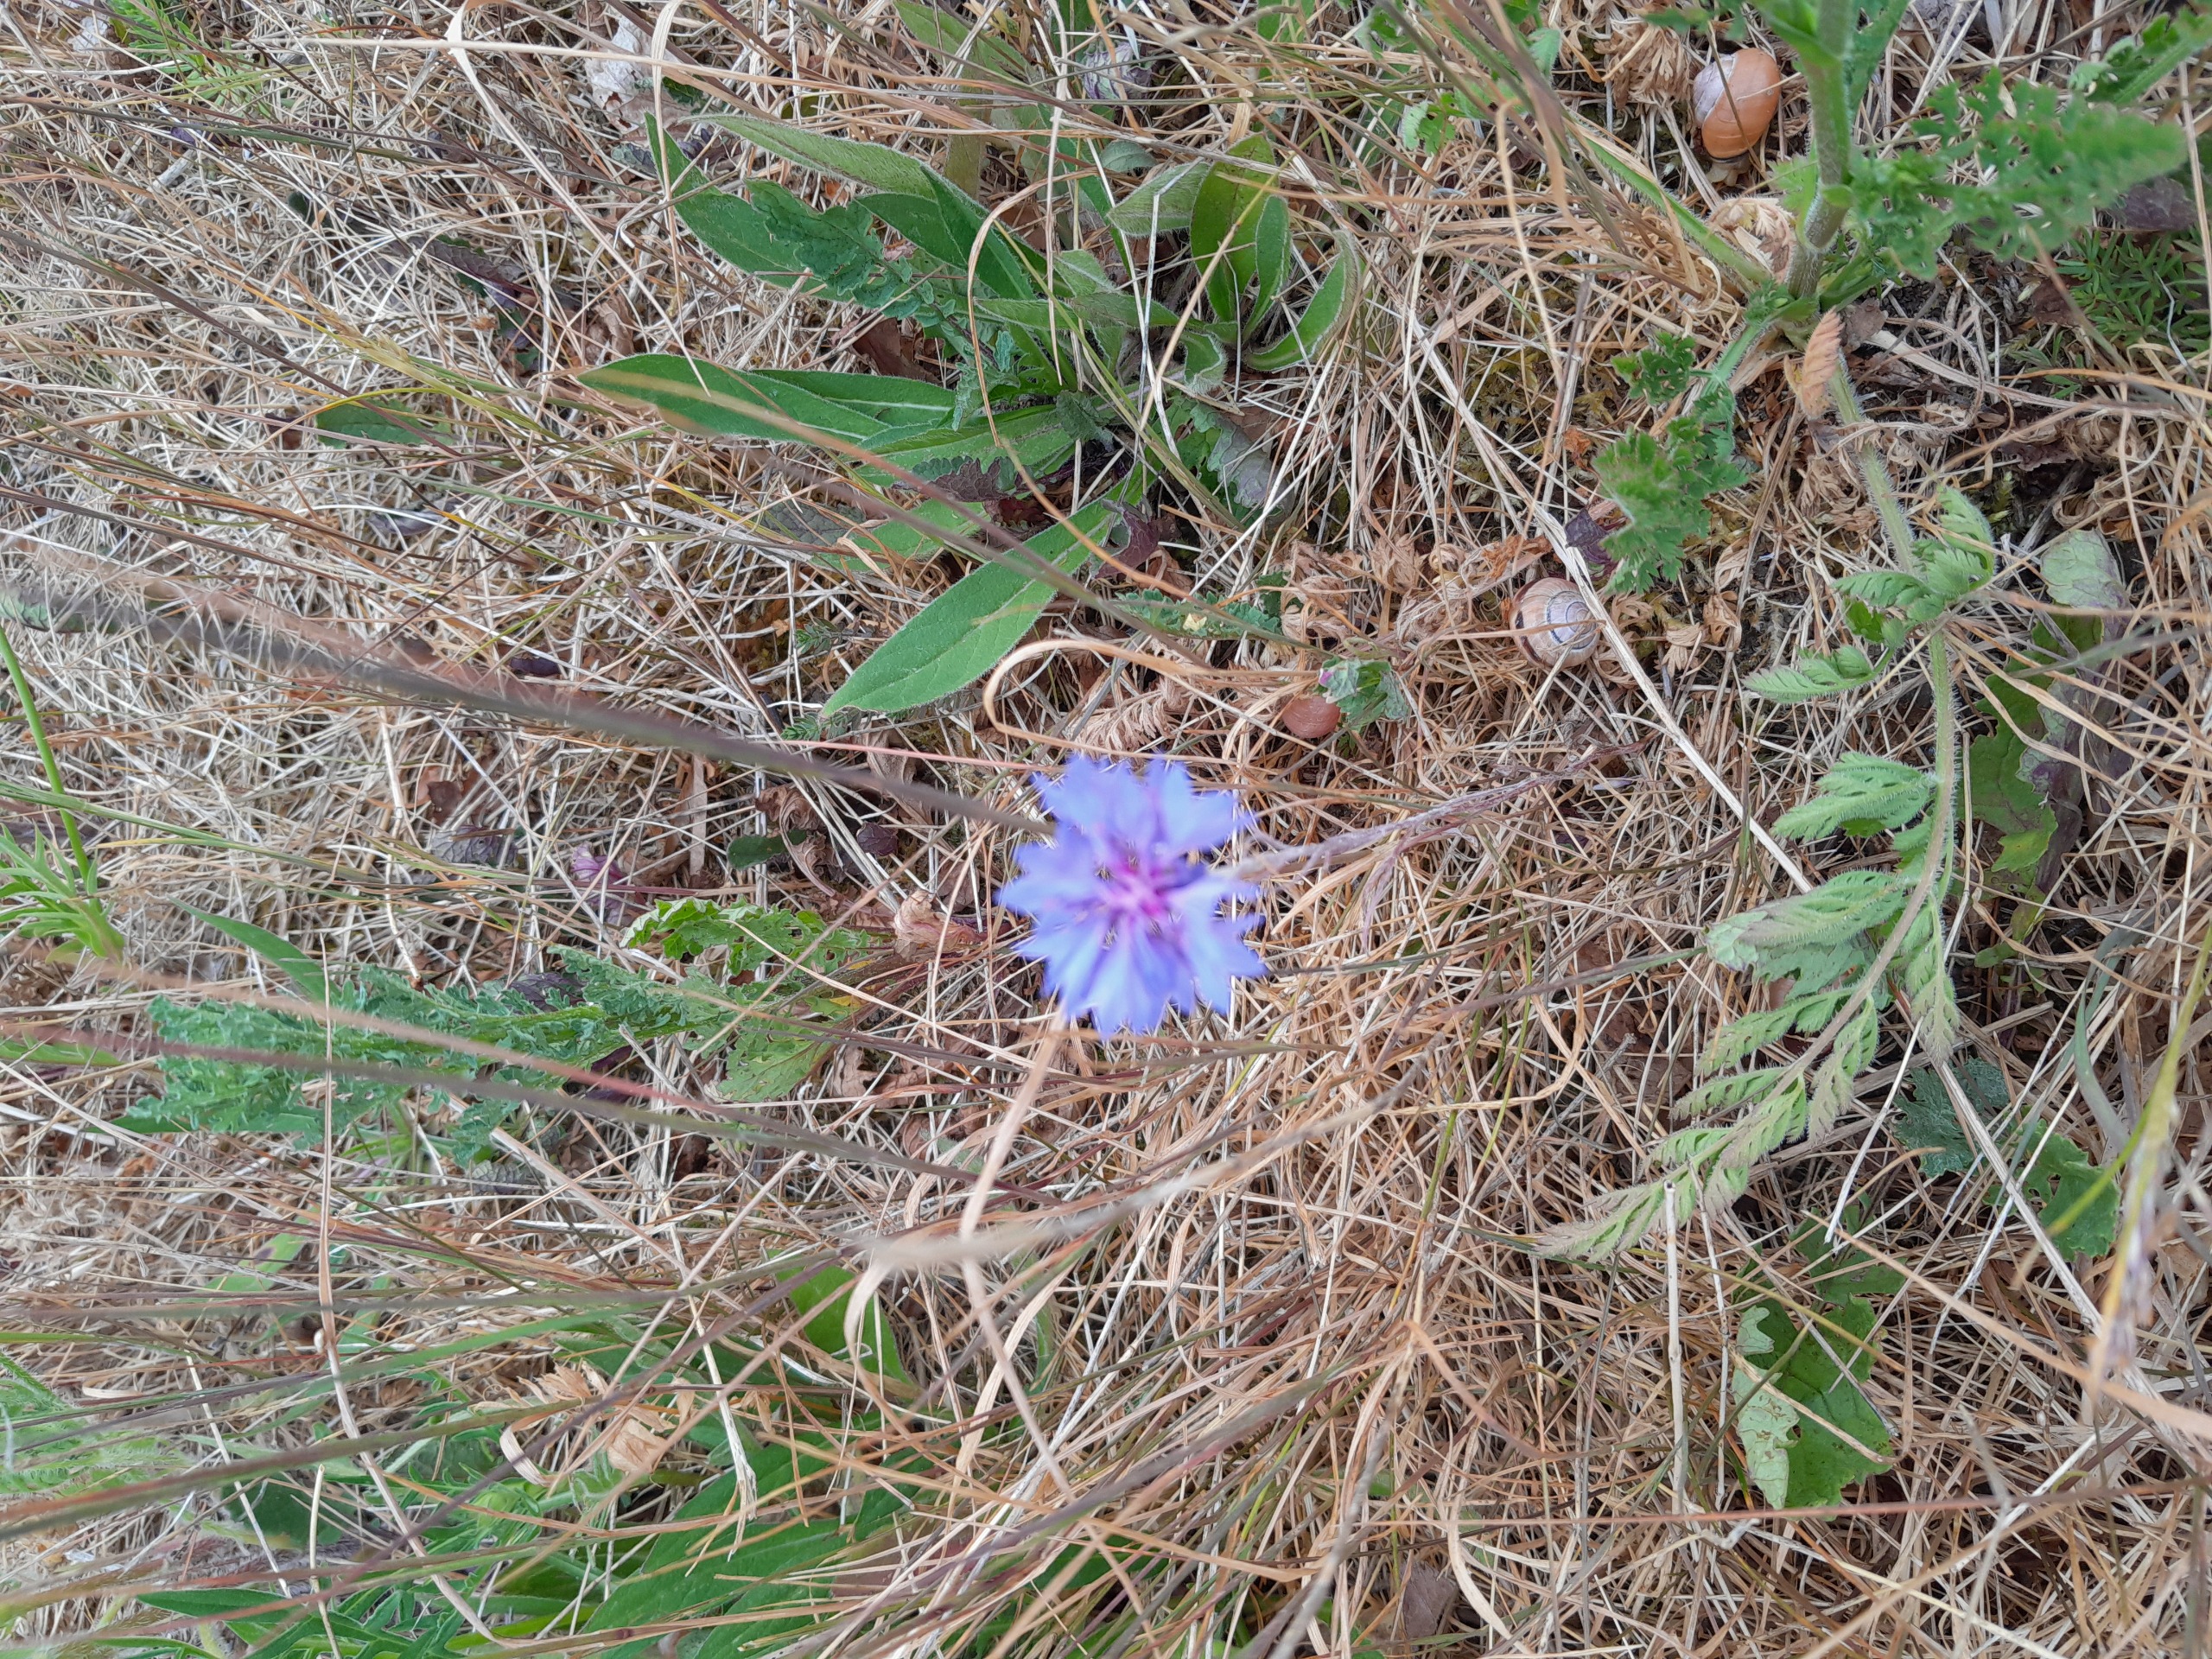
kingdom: Plantae
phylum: Tracheophyta
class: Magnoliopsida
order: Asterales
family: Asteraceae
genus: Centaurea
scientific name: Centaurea cyanus
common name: Kornblomst
